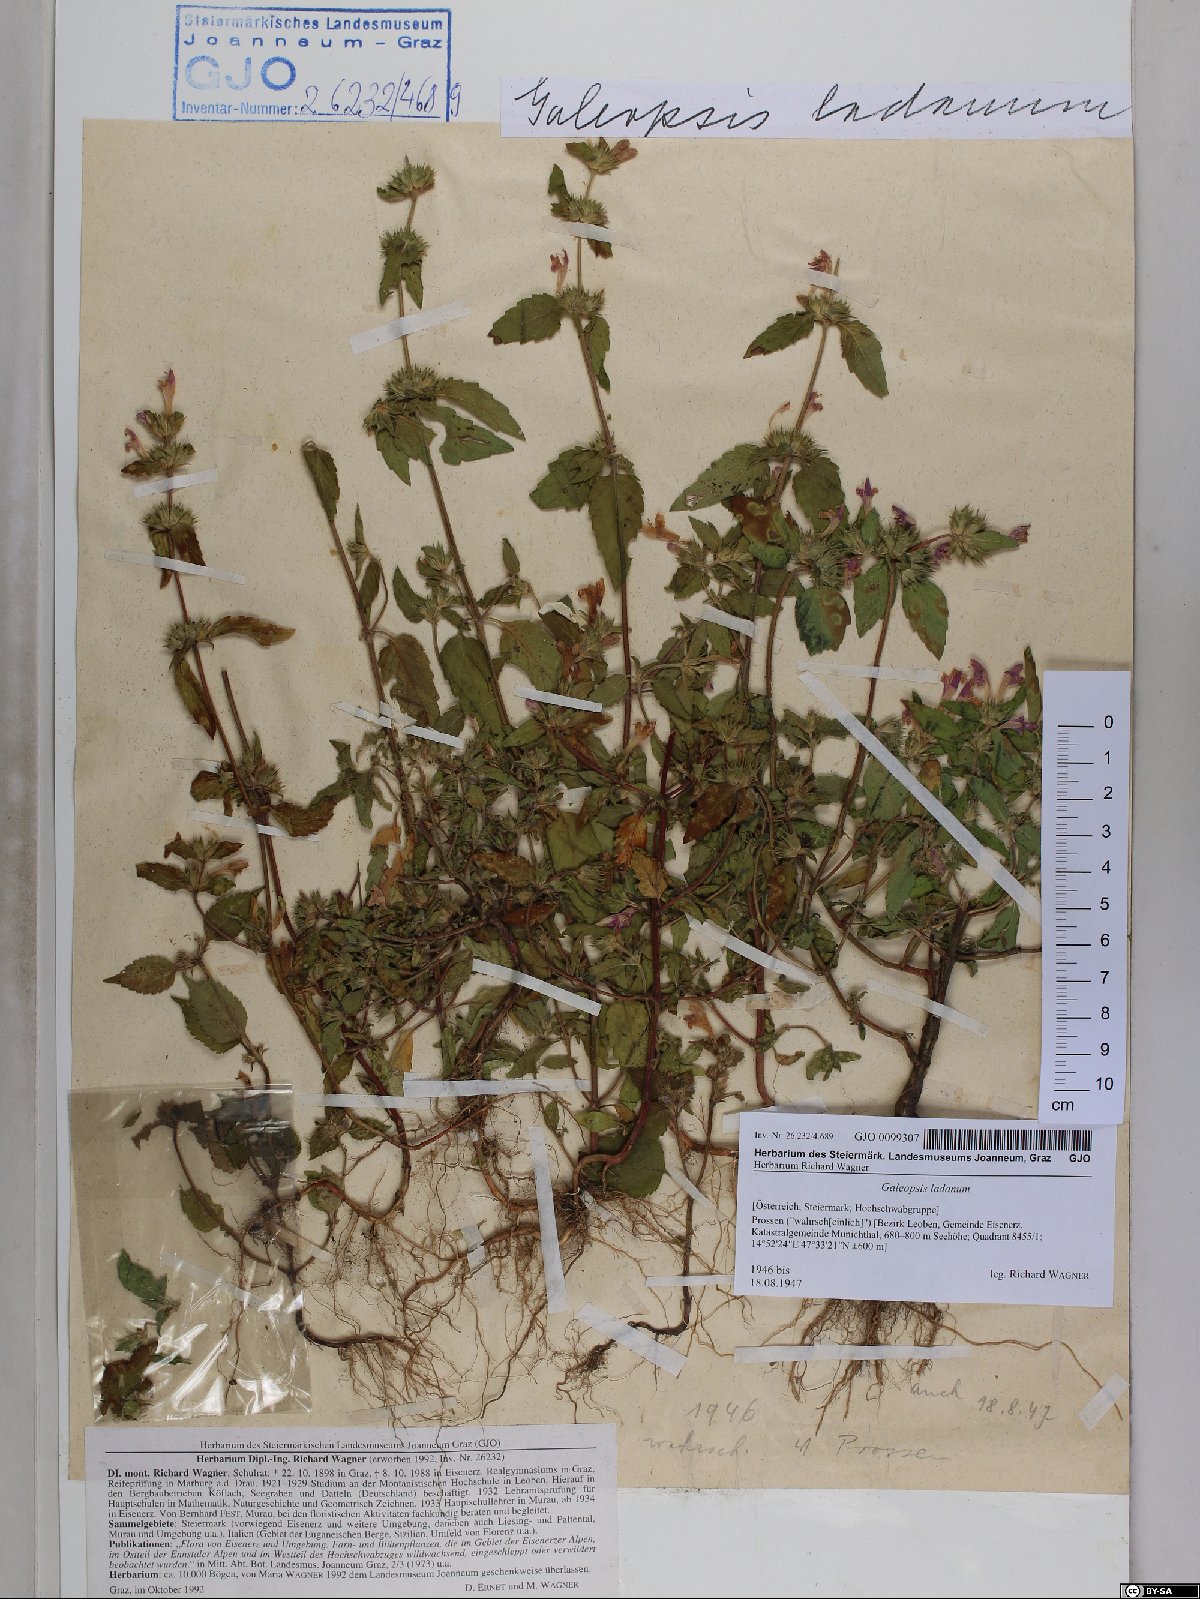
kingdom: Plantae
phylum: Tracheophyta
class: Magnoliopsida
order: Lamiales
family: Lamiaceae
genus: Galeopsis
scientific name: Galeopsis ladanum
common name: Broad-leaved hemp-nettle
